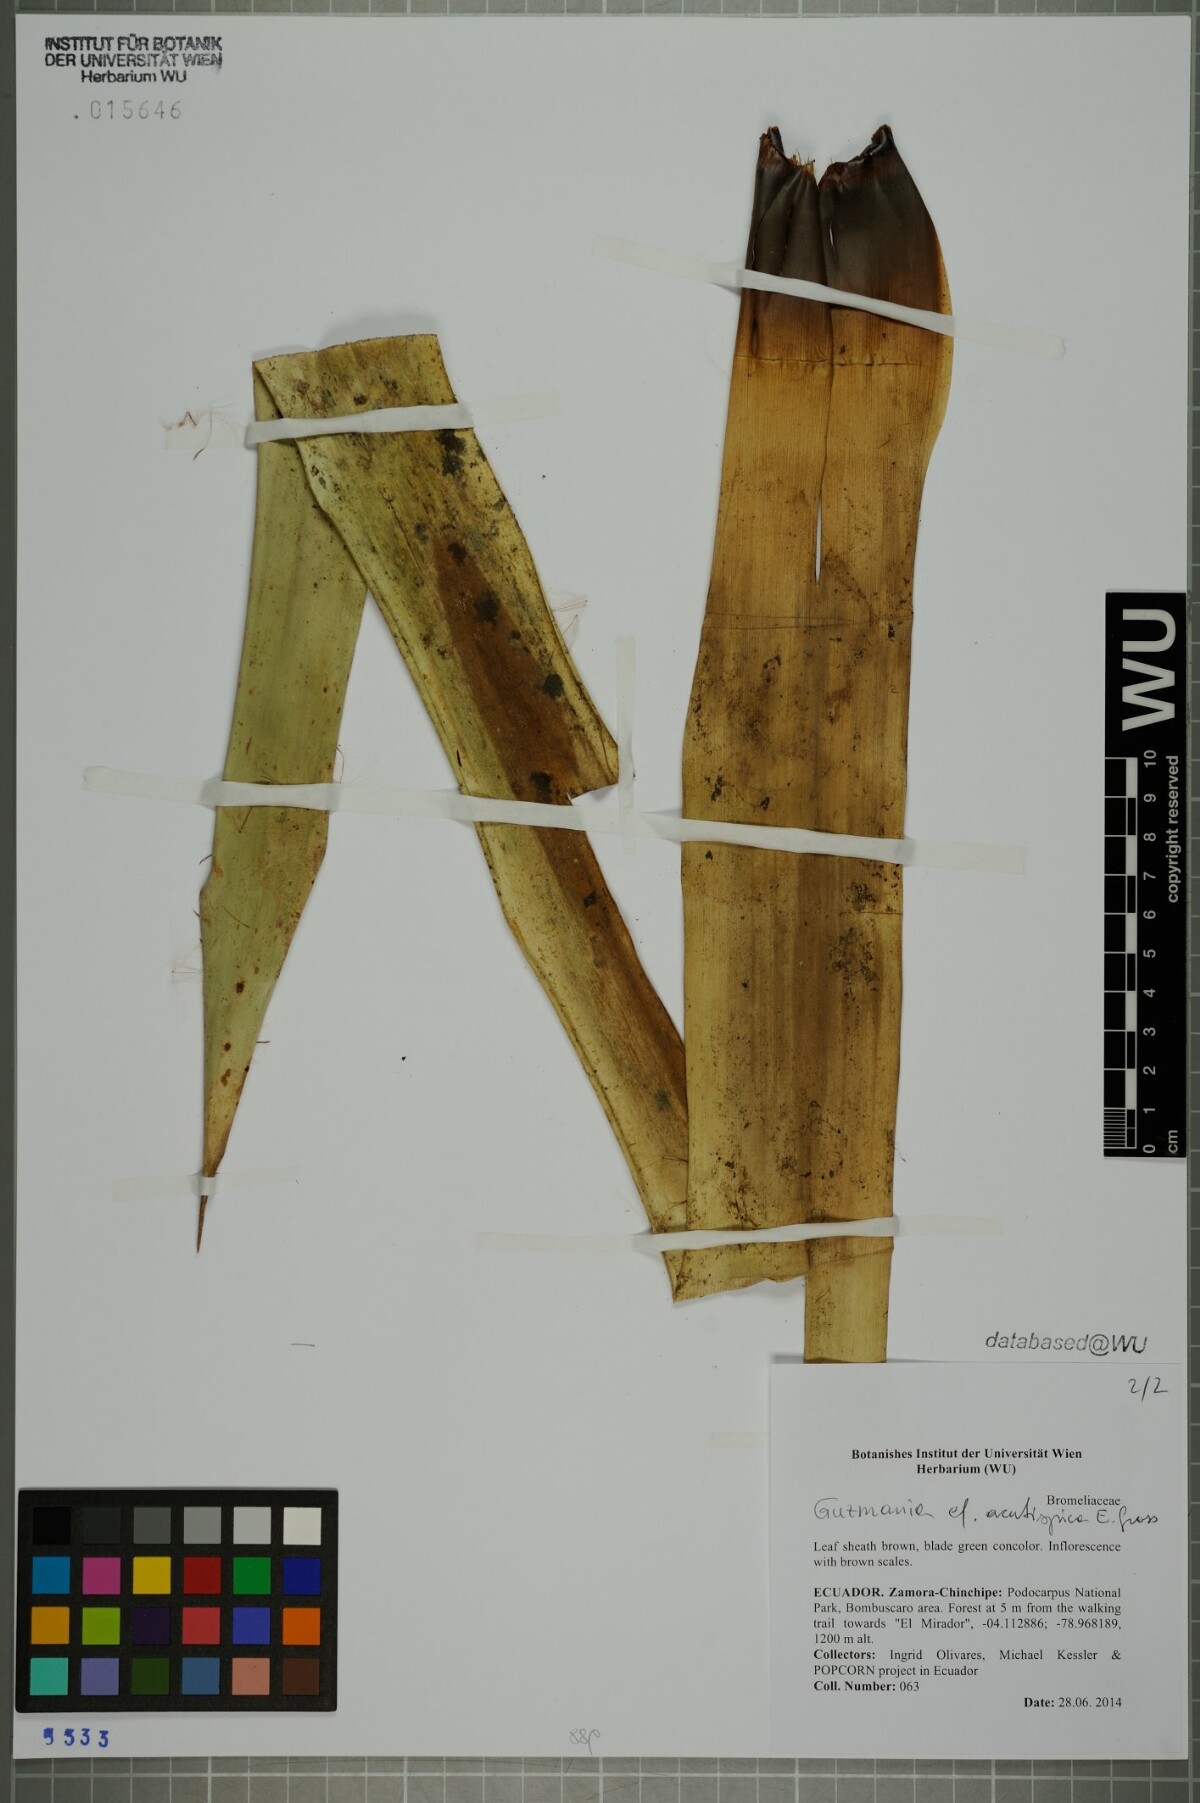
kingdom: Plantae
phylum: Tracheophyta
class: Liliopsida
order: Poales
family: Bromeliaceae
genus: Guzmania
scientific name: Guzmania acutispica
